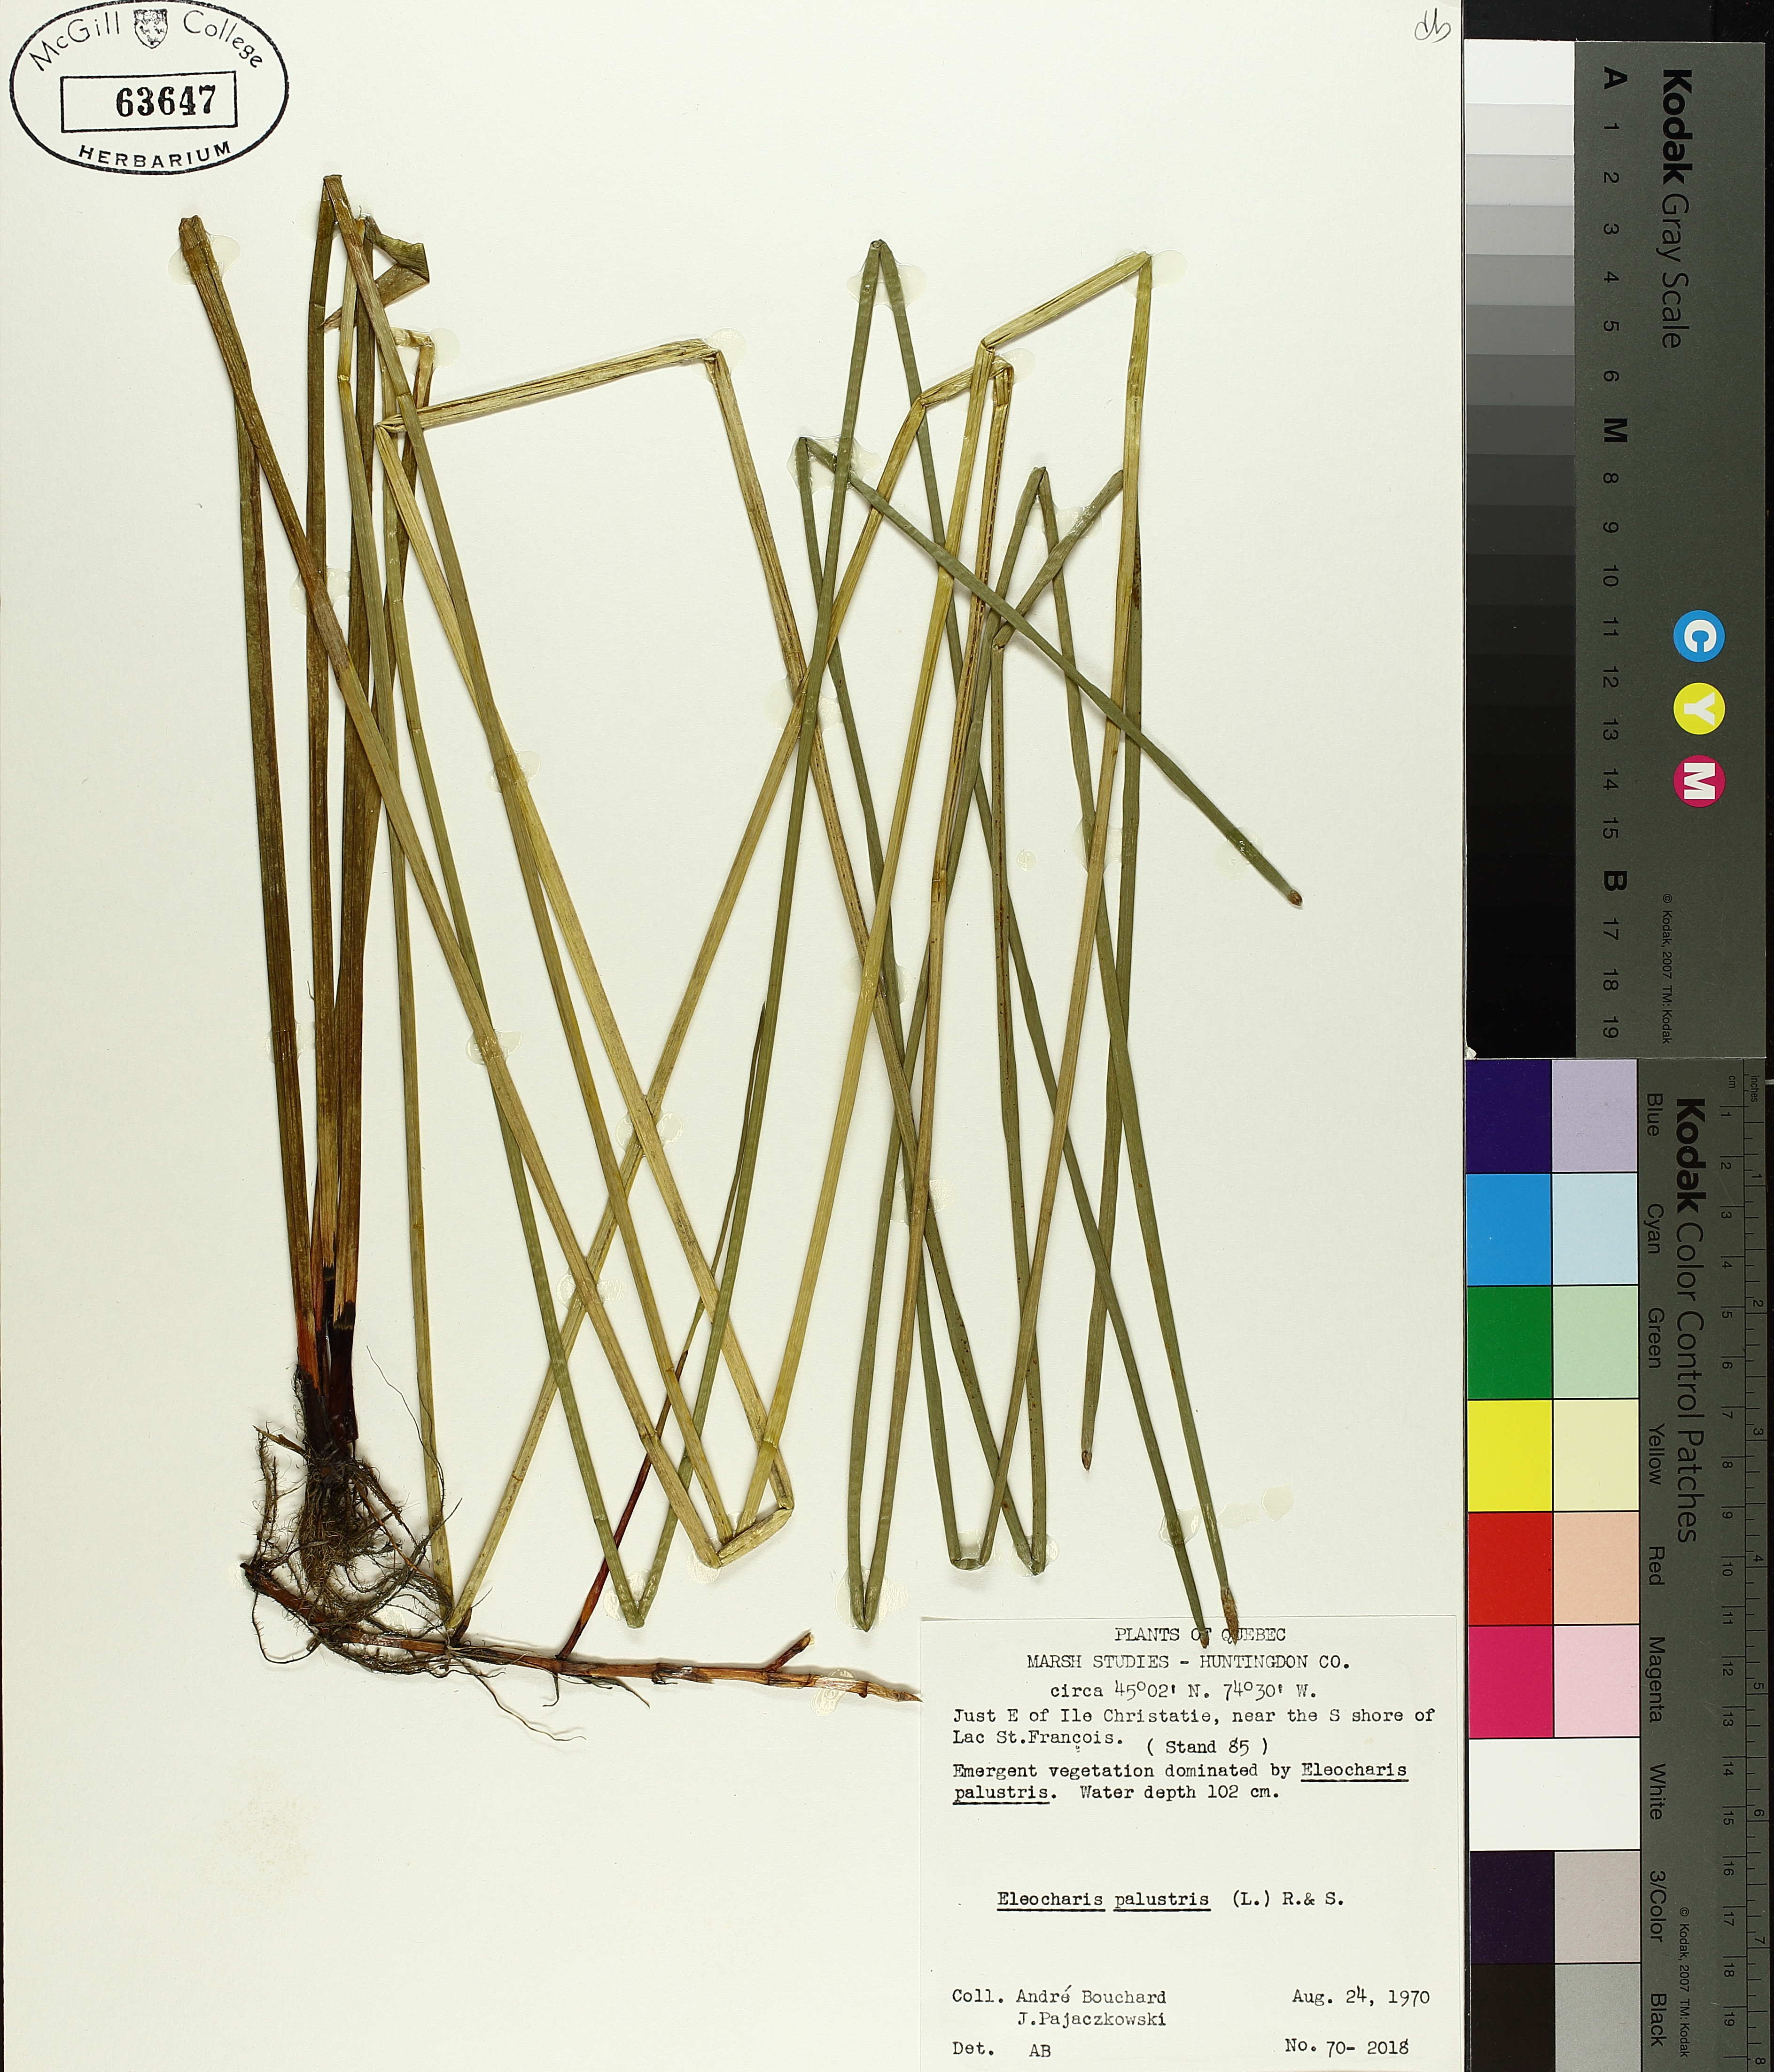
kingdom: Plantae
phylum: Tracheophyta
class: Liliopsida
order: Poales
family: Cyperaceae
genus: Eleocharis
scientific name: Eleocharis palustris
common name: Common spike-rush
